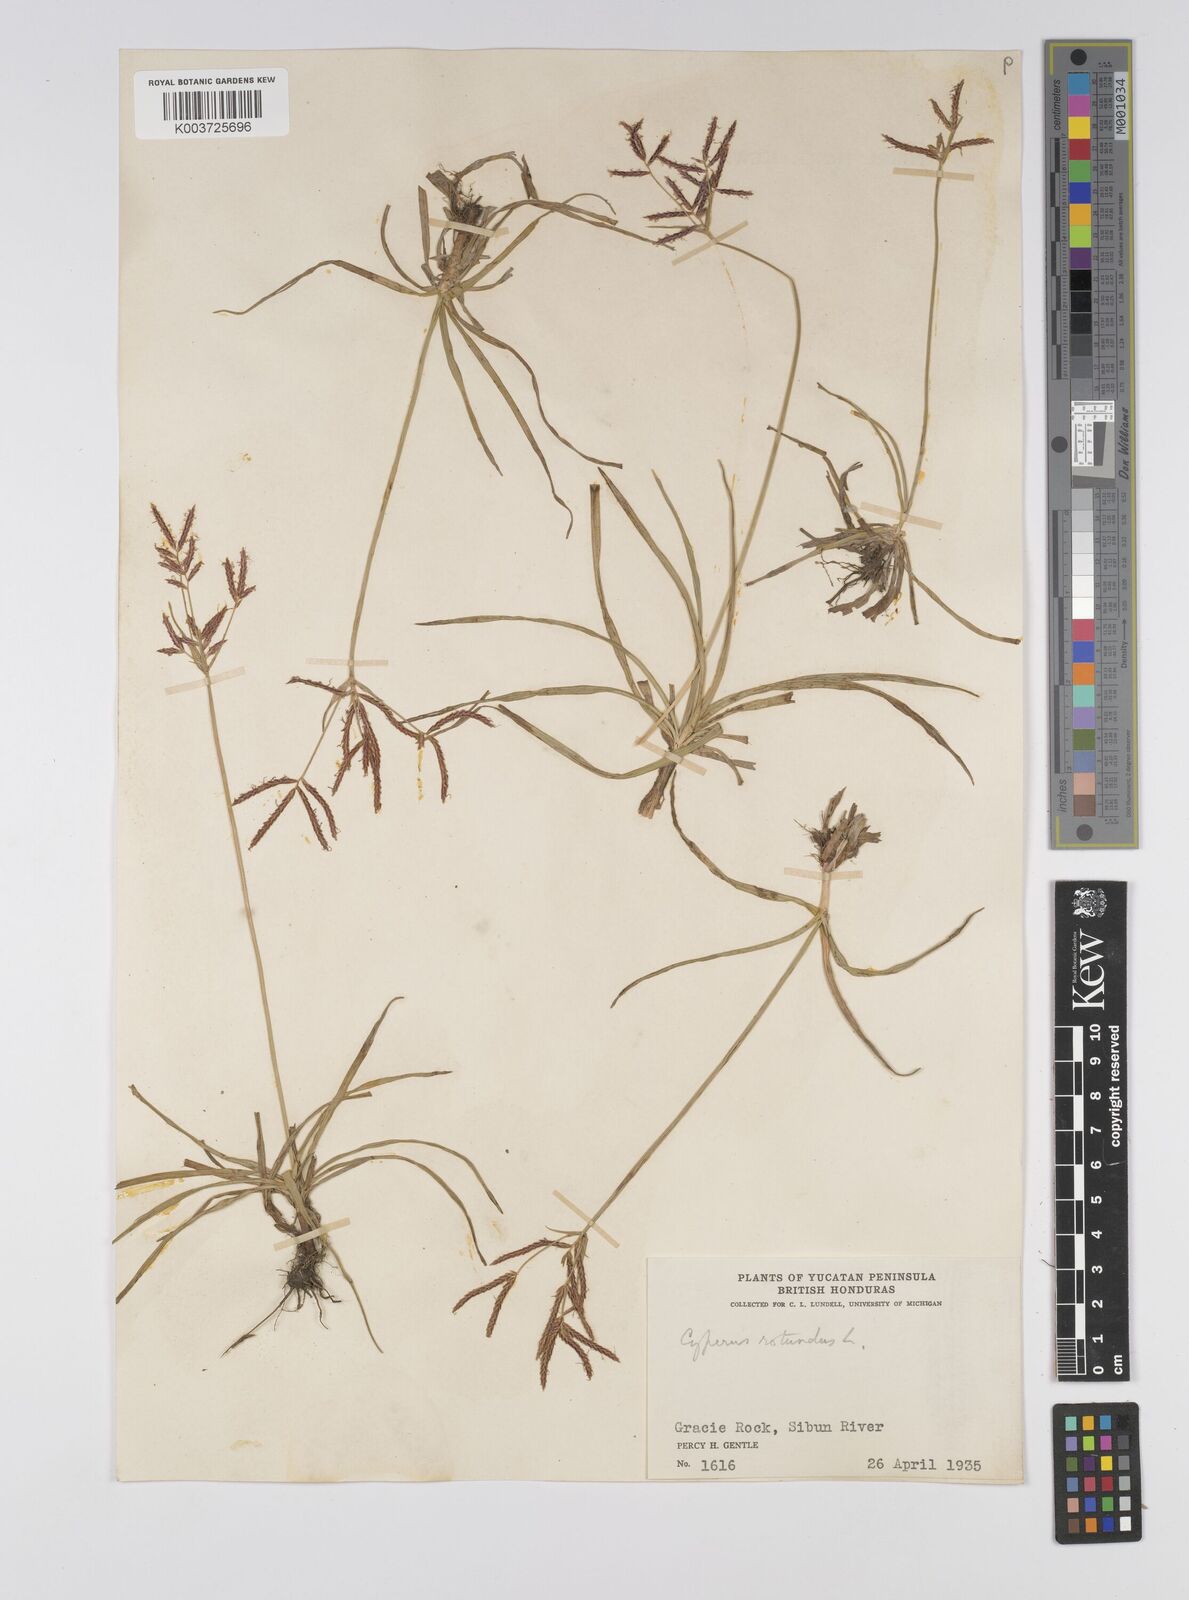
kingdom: Plantae
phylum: Tracheophyta
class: Liliopsida
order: Poales
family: Cyperaceae
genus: Cyperus
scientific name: Cyperus rotundus
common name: Nutgrass
